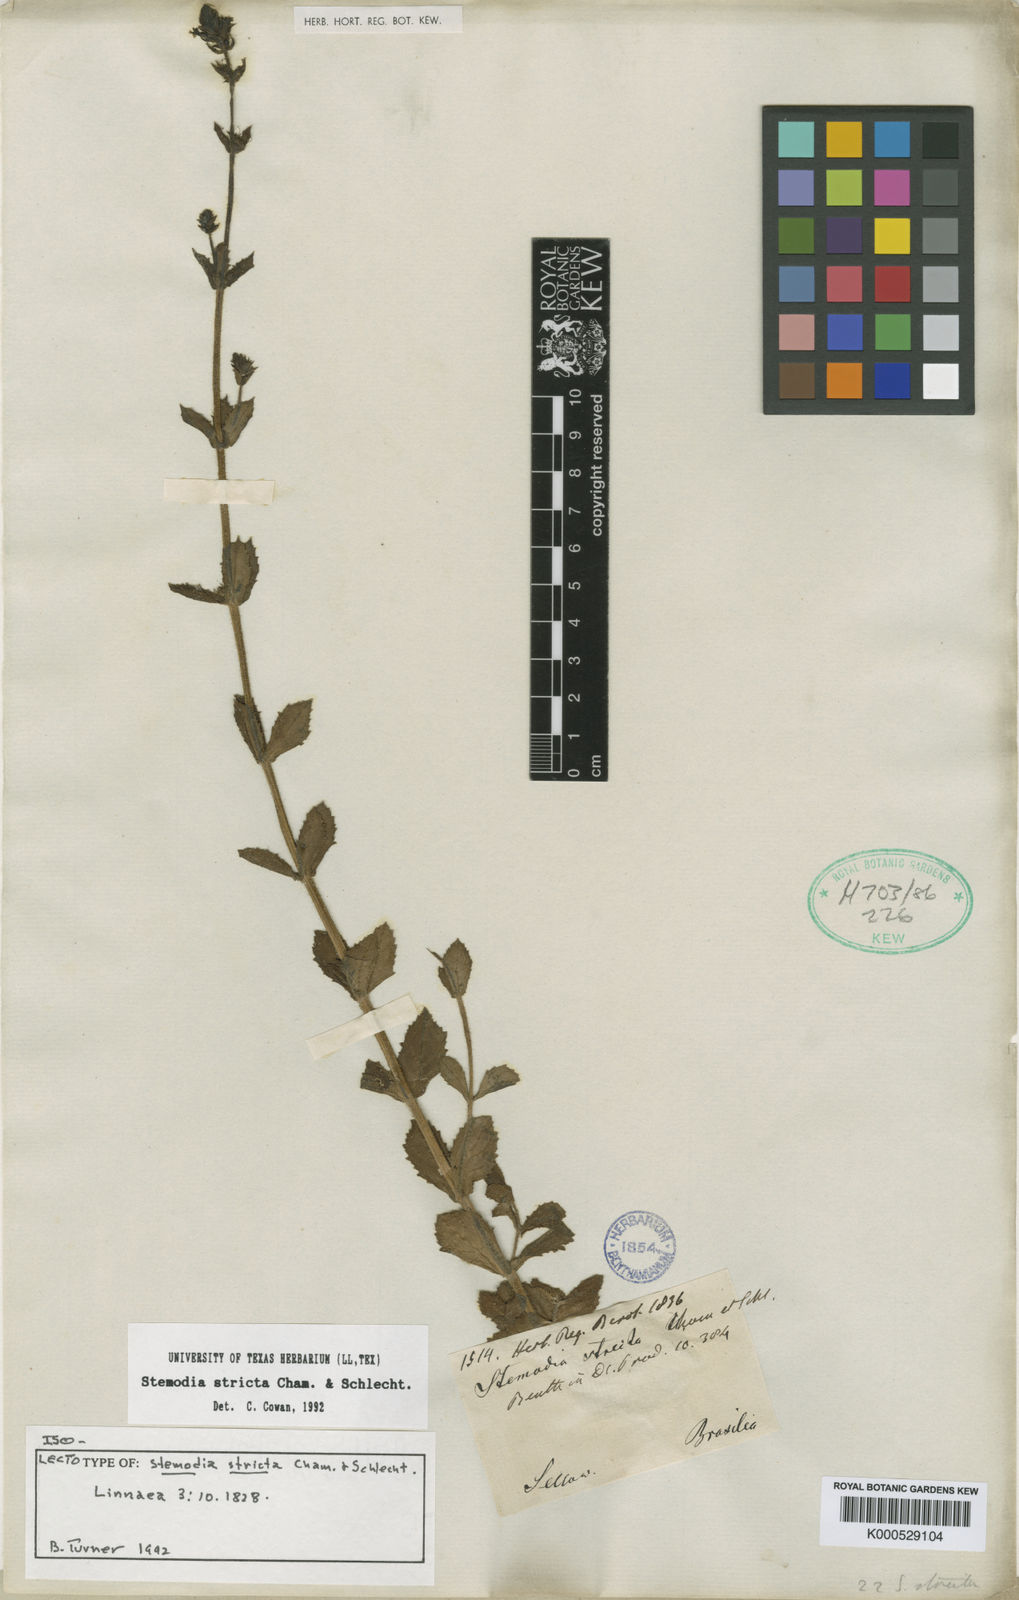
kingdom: Plantae
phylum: Tracheophyta
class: Magnoliopsida
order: Lamiales
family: Plantaginaceae
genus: Stemodia
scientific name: Stemodia stricta
